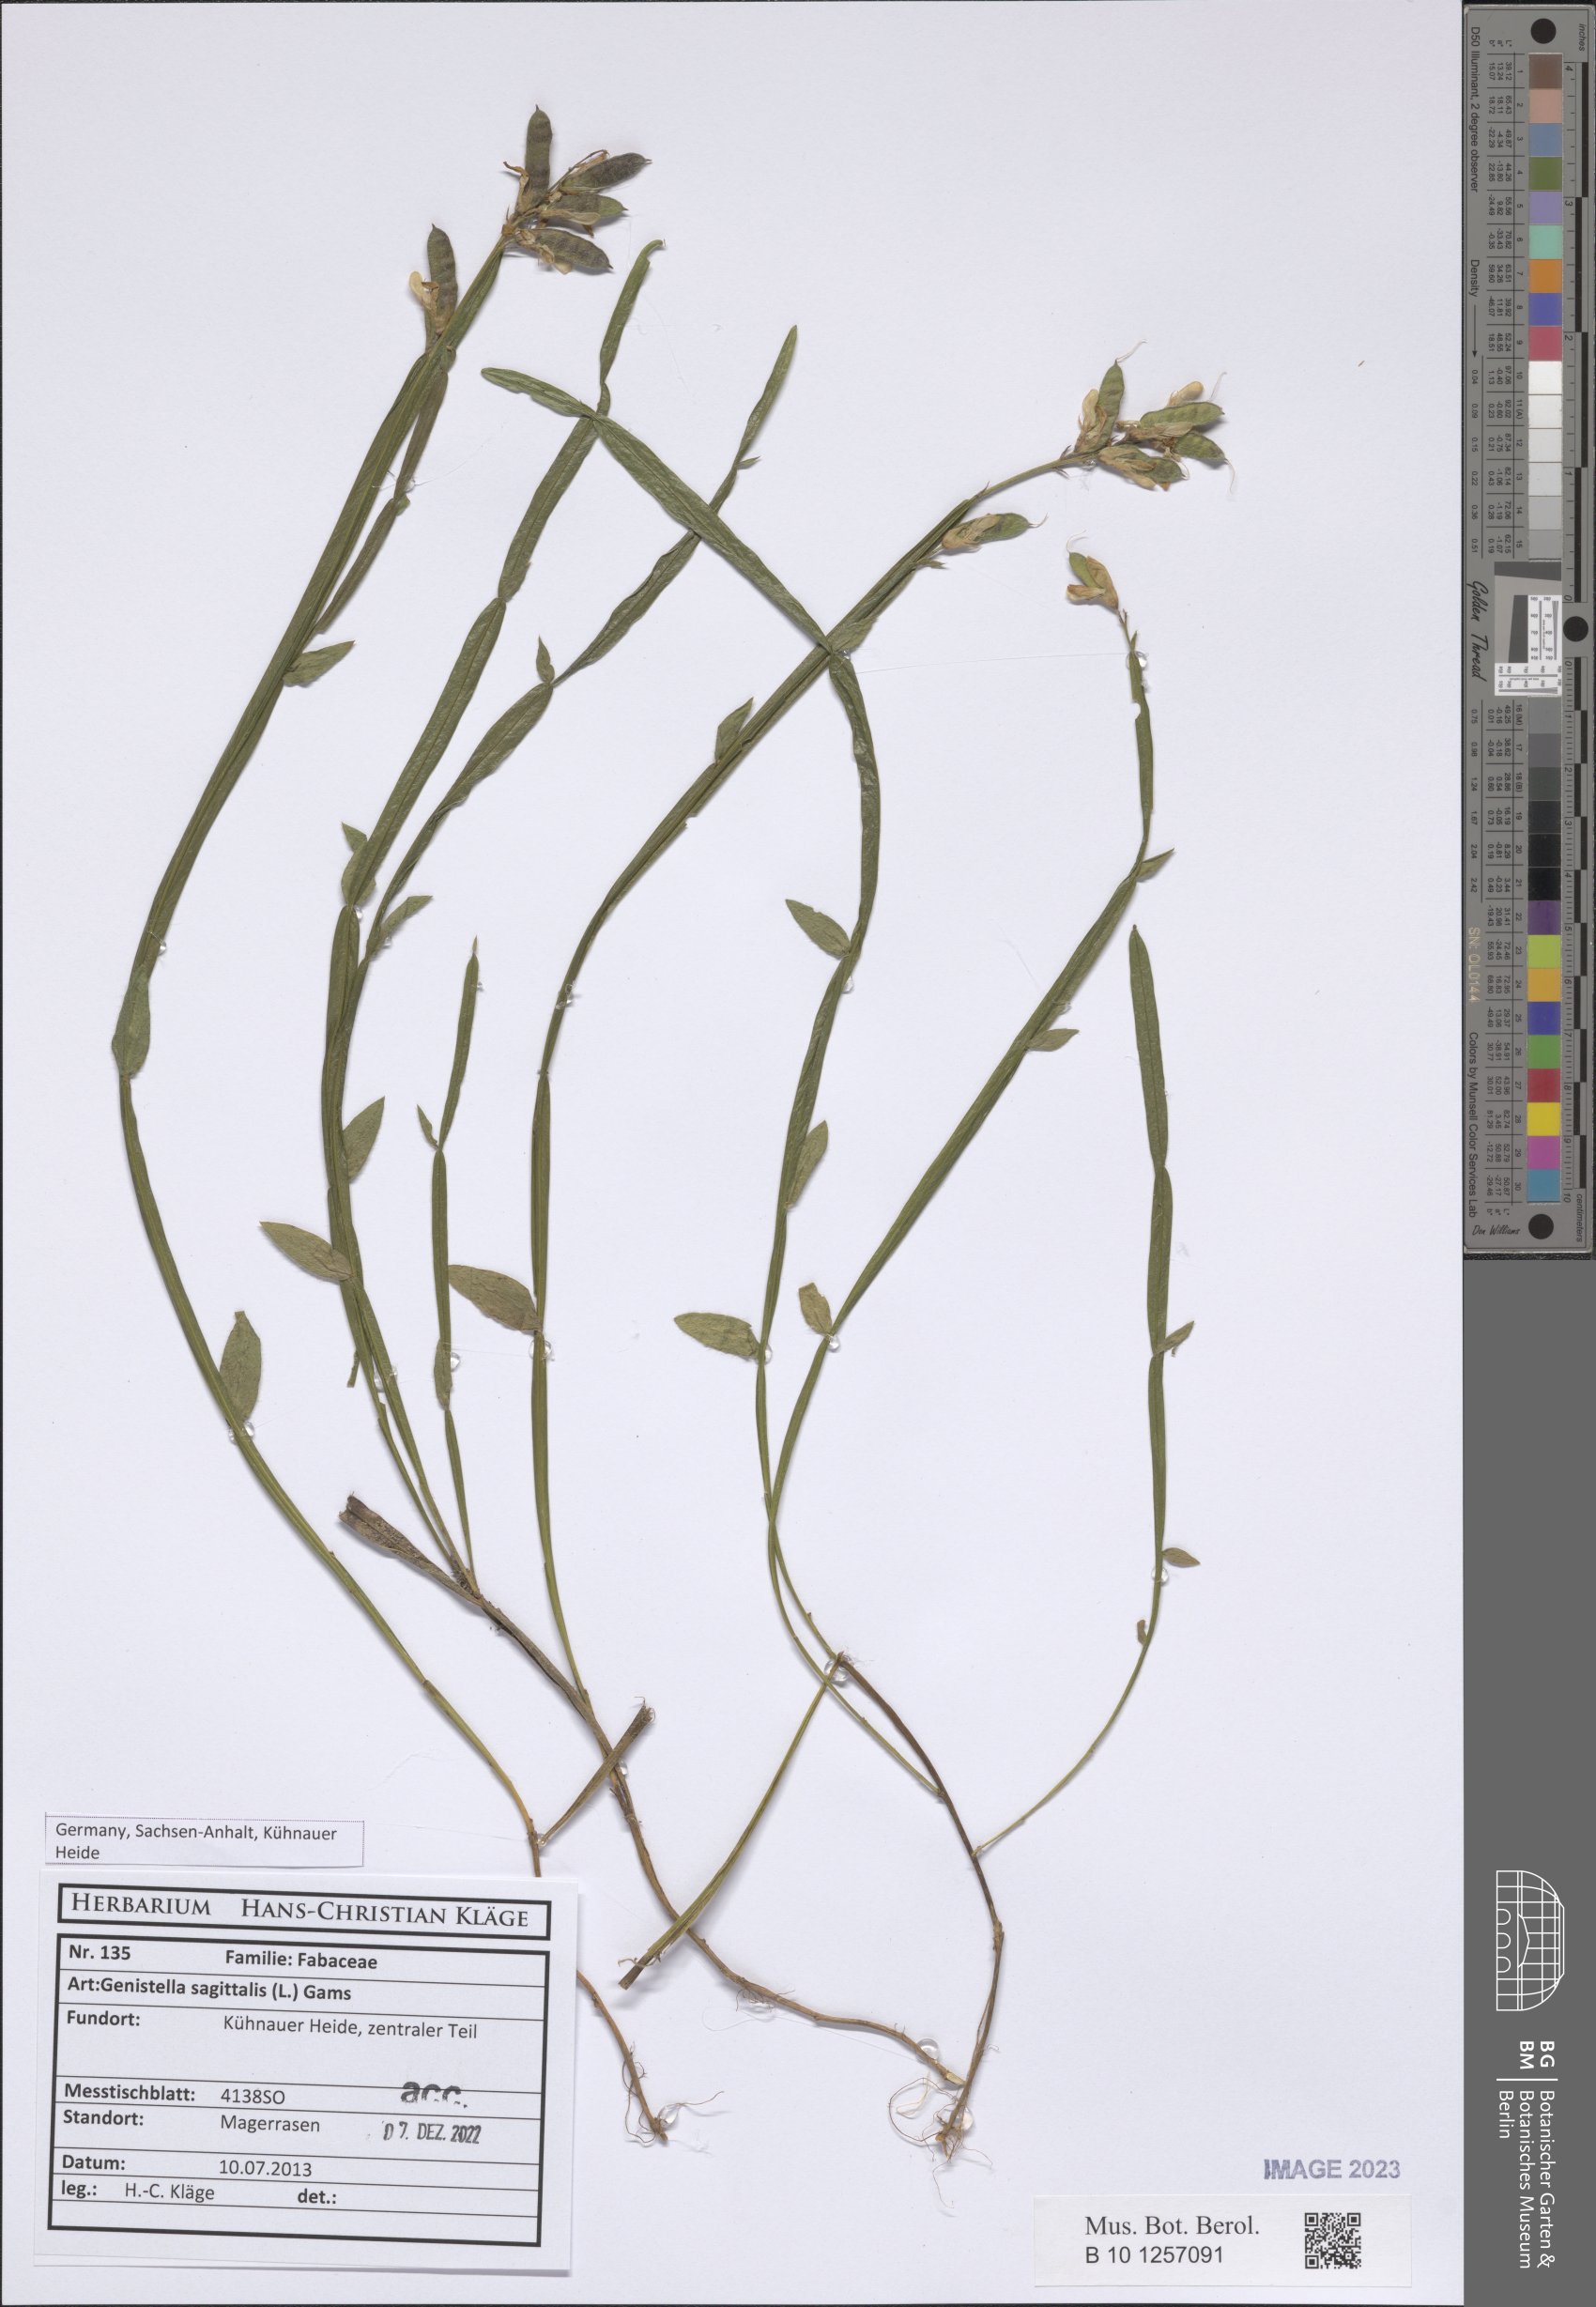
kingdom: Plantae
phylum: Tracheophyta
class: Magnoliopsida
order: Fabales
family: Fabaceae
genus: Genista
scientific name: Genista sagittalis
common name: Winged greenweed
